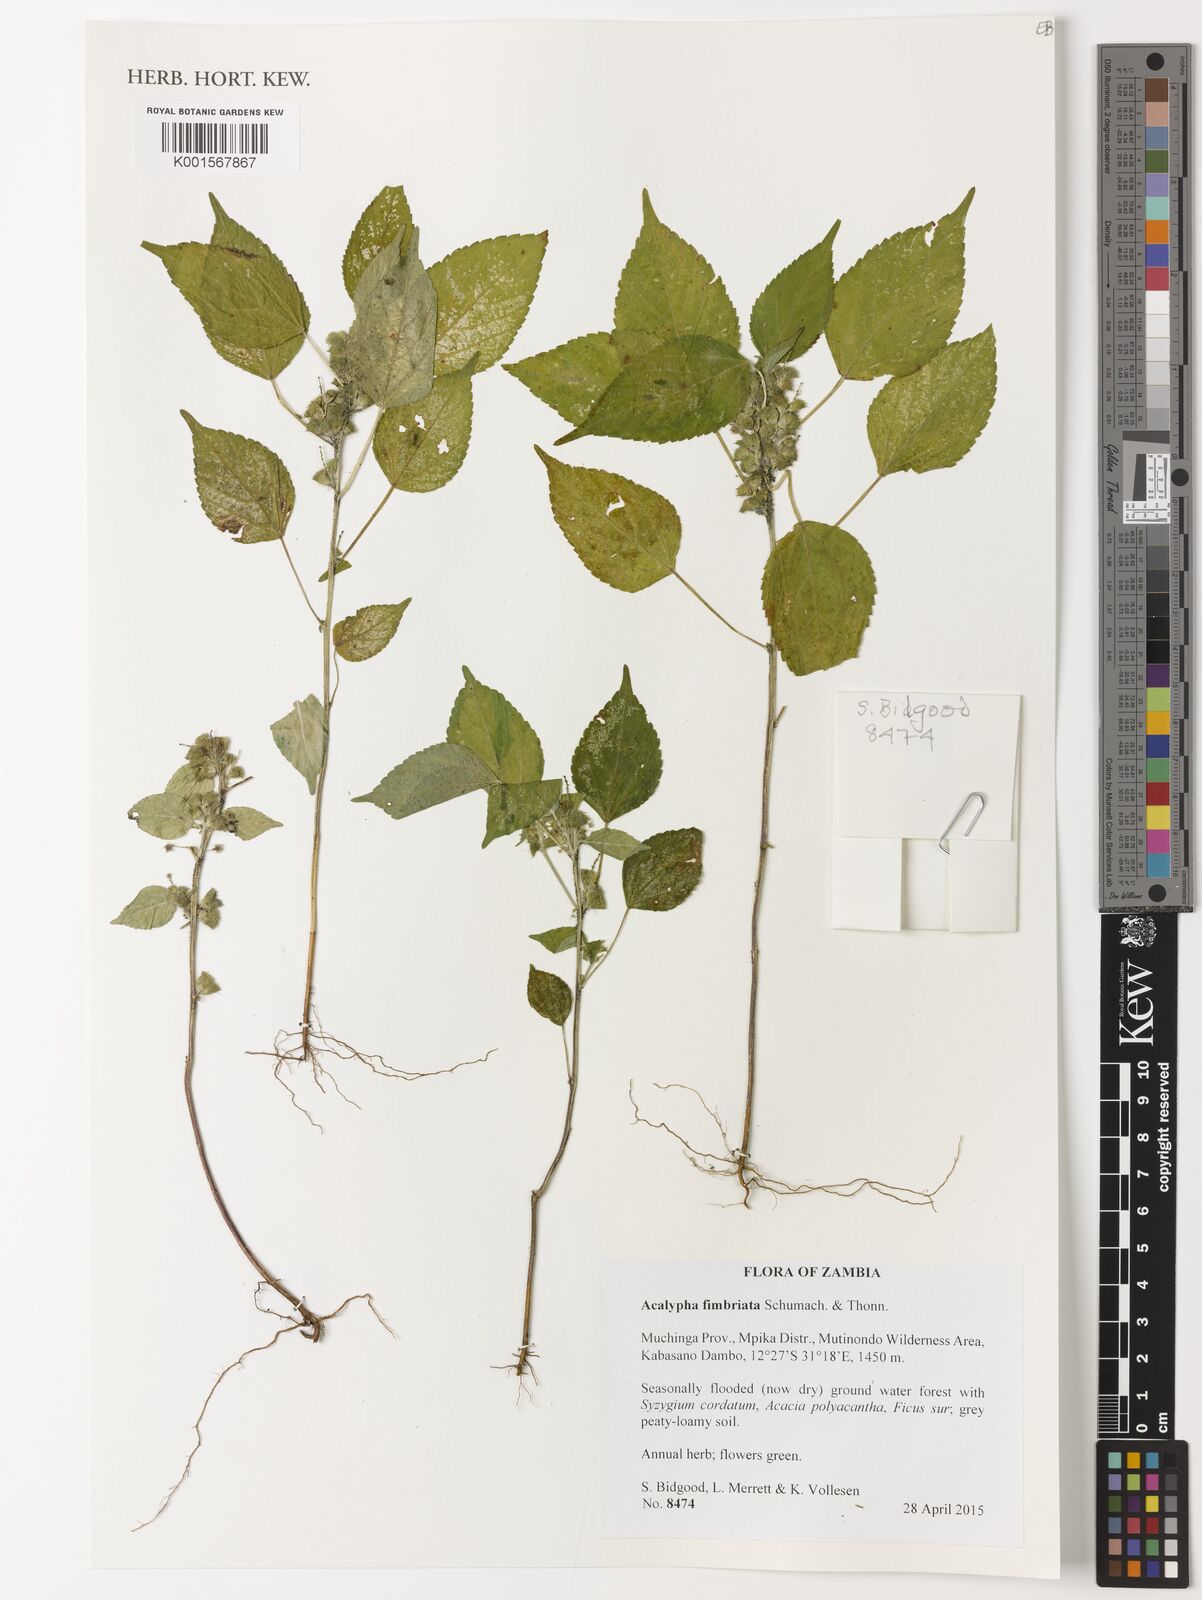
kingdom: Plantae
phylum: Tracheophyta
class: Magnoliopsida
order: Malpighiales
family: Euphorbiaceae
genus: Acalypha
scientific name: Acalypha fimbriata
